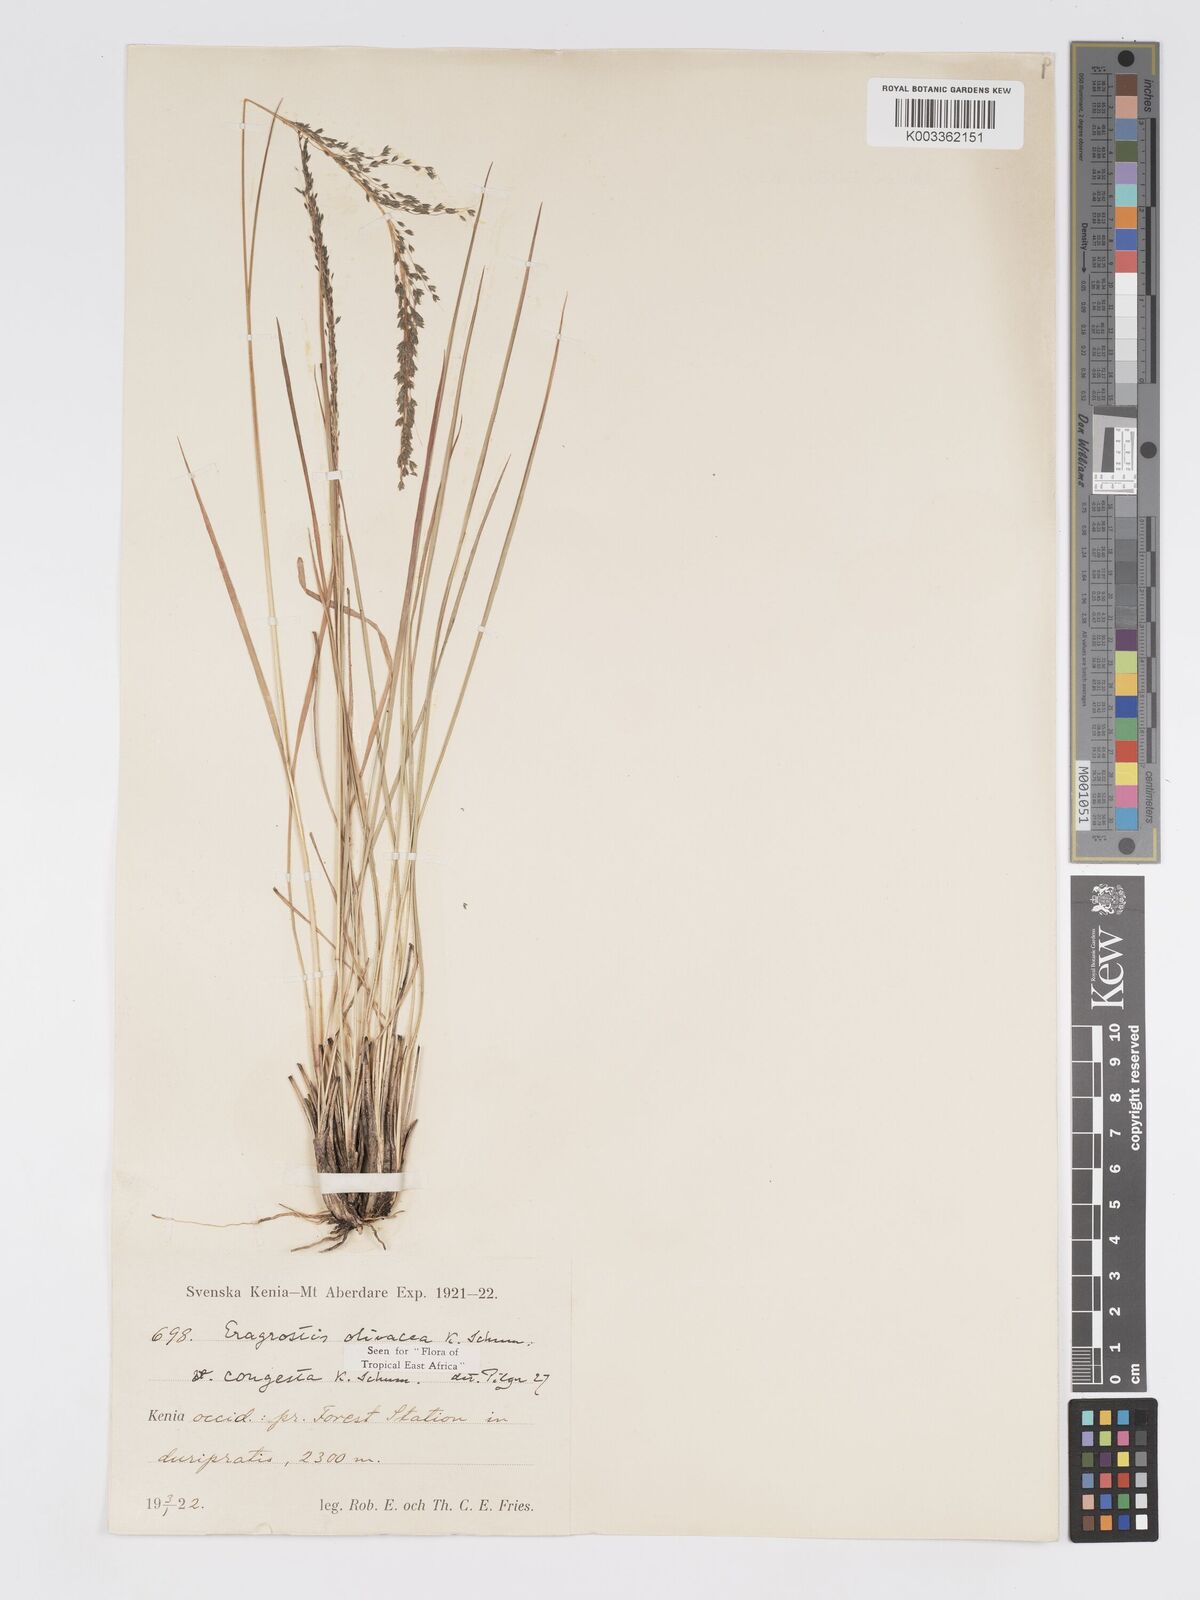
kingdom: Plantae
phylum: Tracheophyta
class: Liliopsida
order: Poales
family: Poaceae
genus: Eragrostis
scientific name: Eragrostis olivacea
